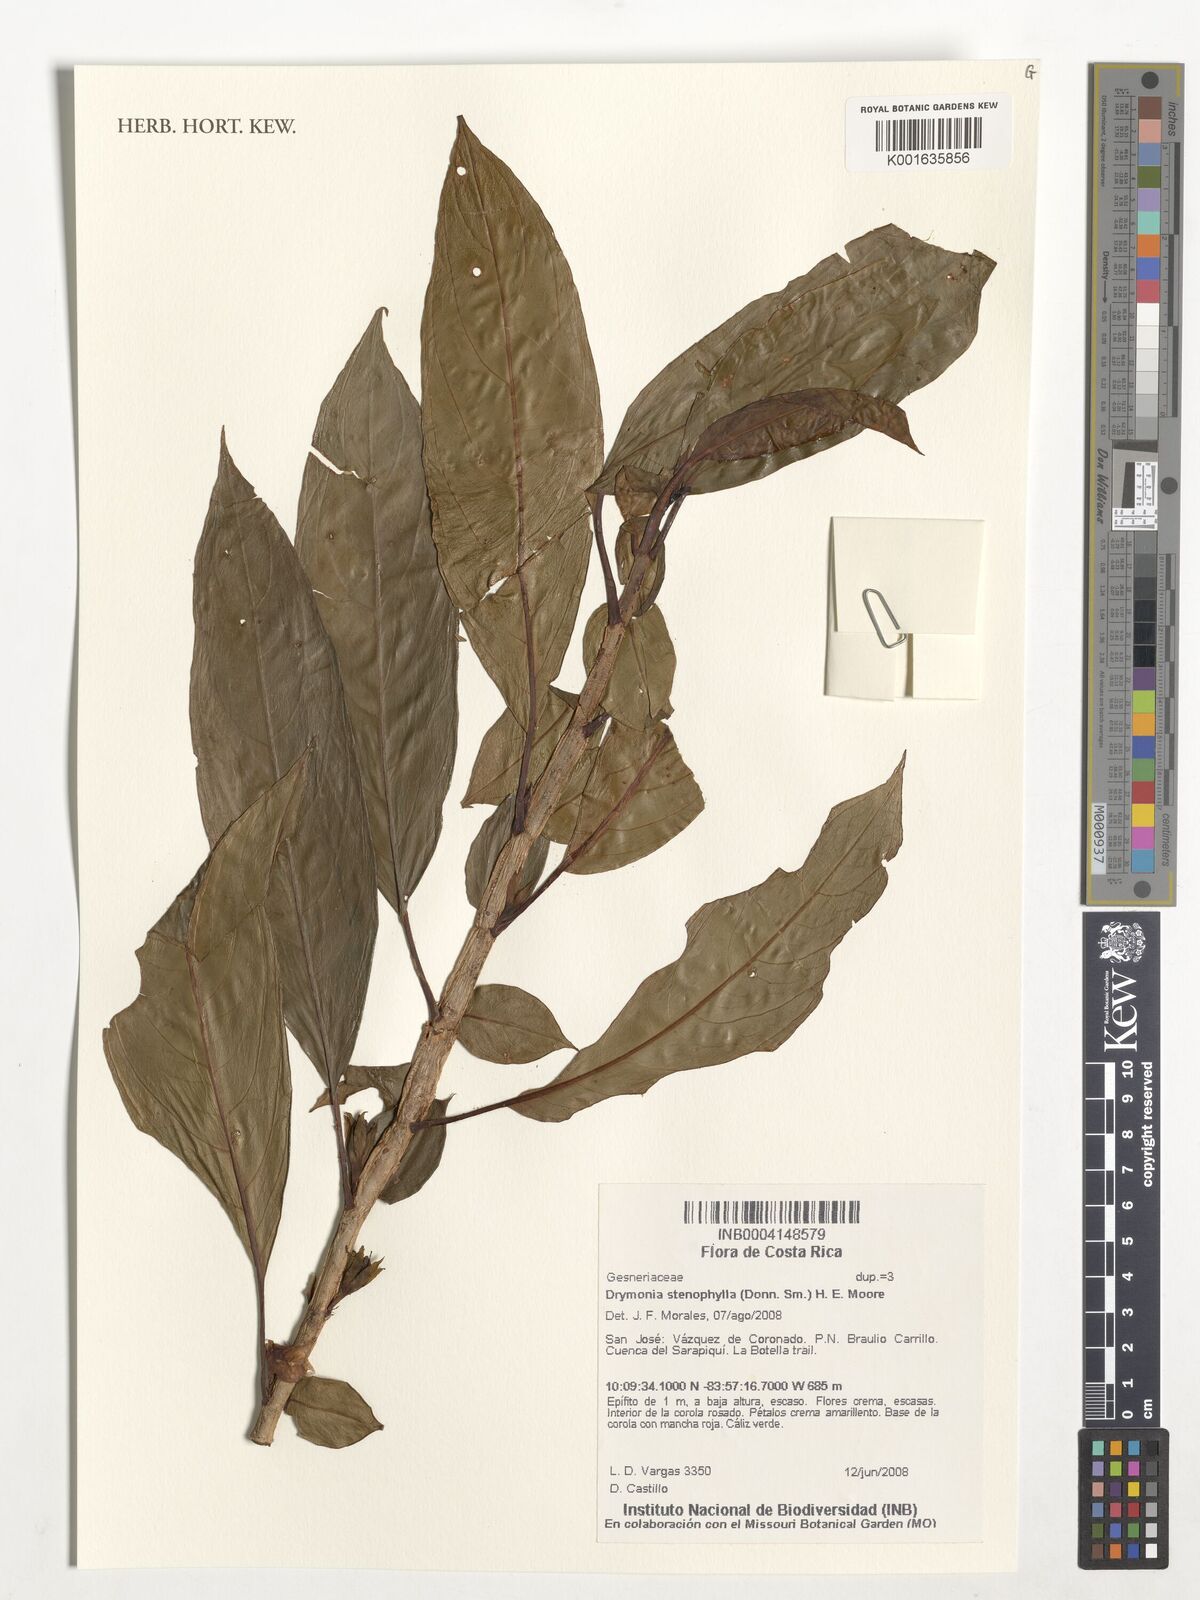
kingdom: Plantae
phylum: Tracheophyta
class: Magnoliopsida
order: Lamiales
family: Gesneriaceae
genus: Drymonia
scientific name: Drymonia stenophylla
